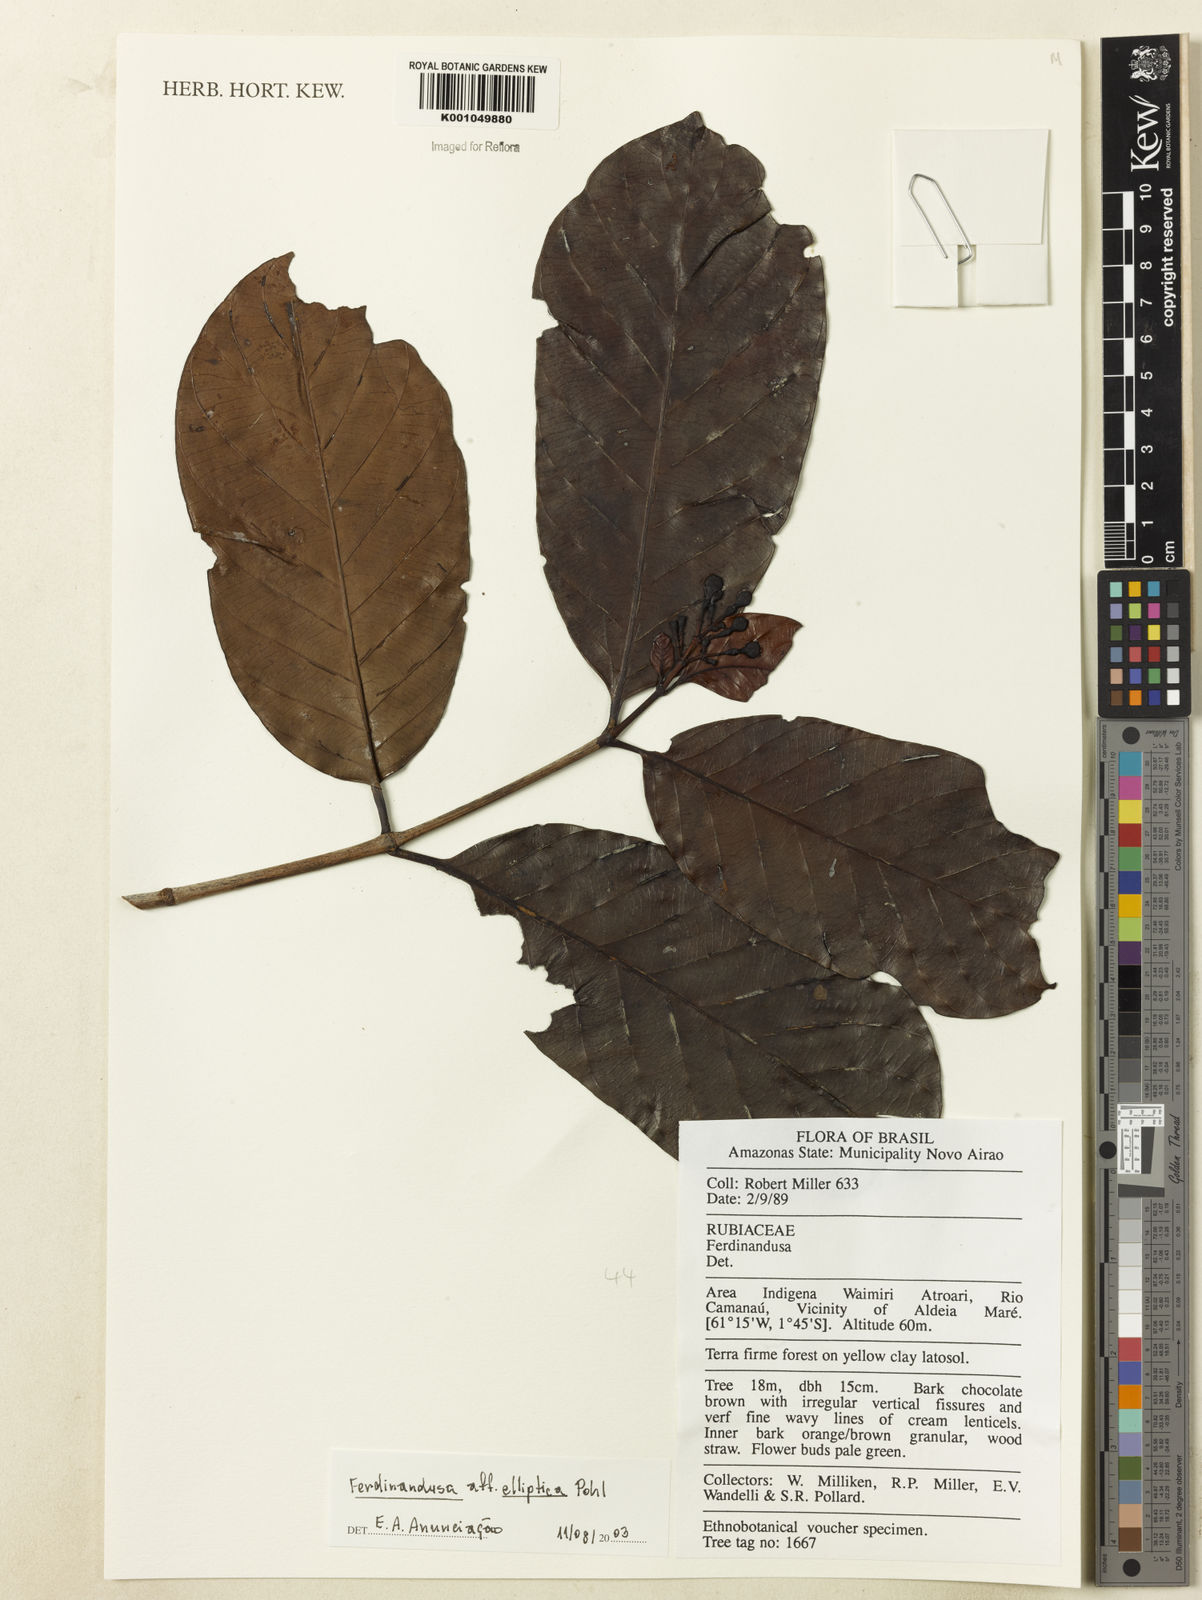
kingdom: Plantae
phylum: Tracheophyta
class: Magnoliopsida
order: Gentianales
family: Rubiaceae
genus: Ferdinandusa
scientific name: Ferdinandusa
